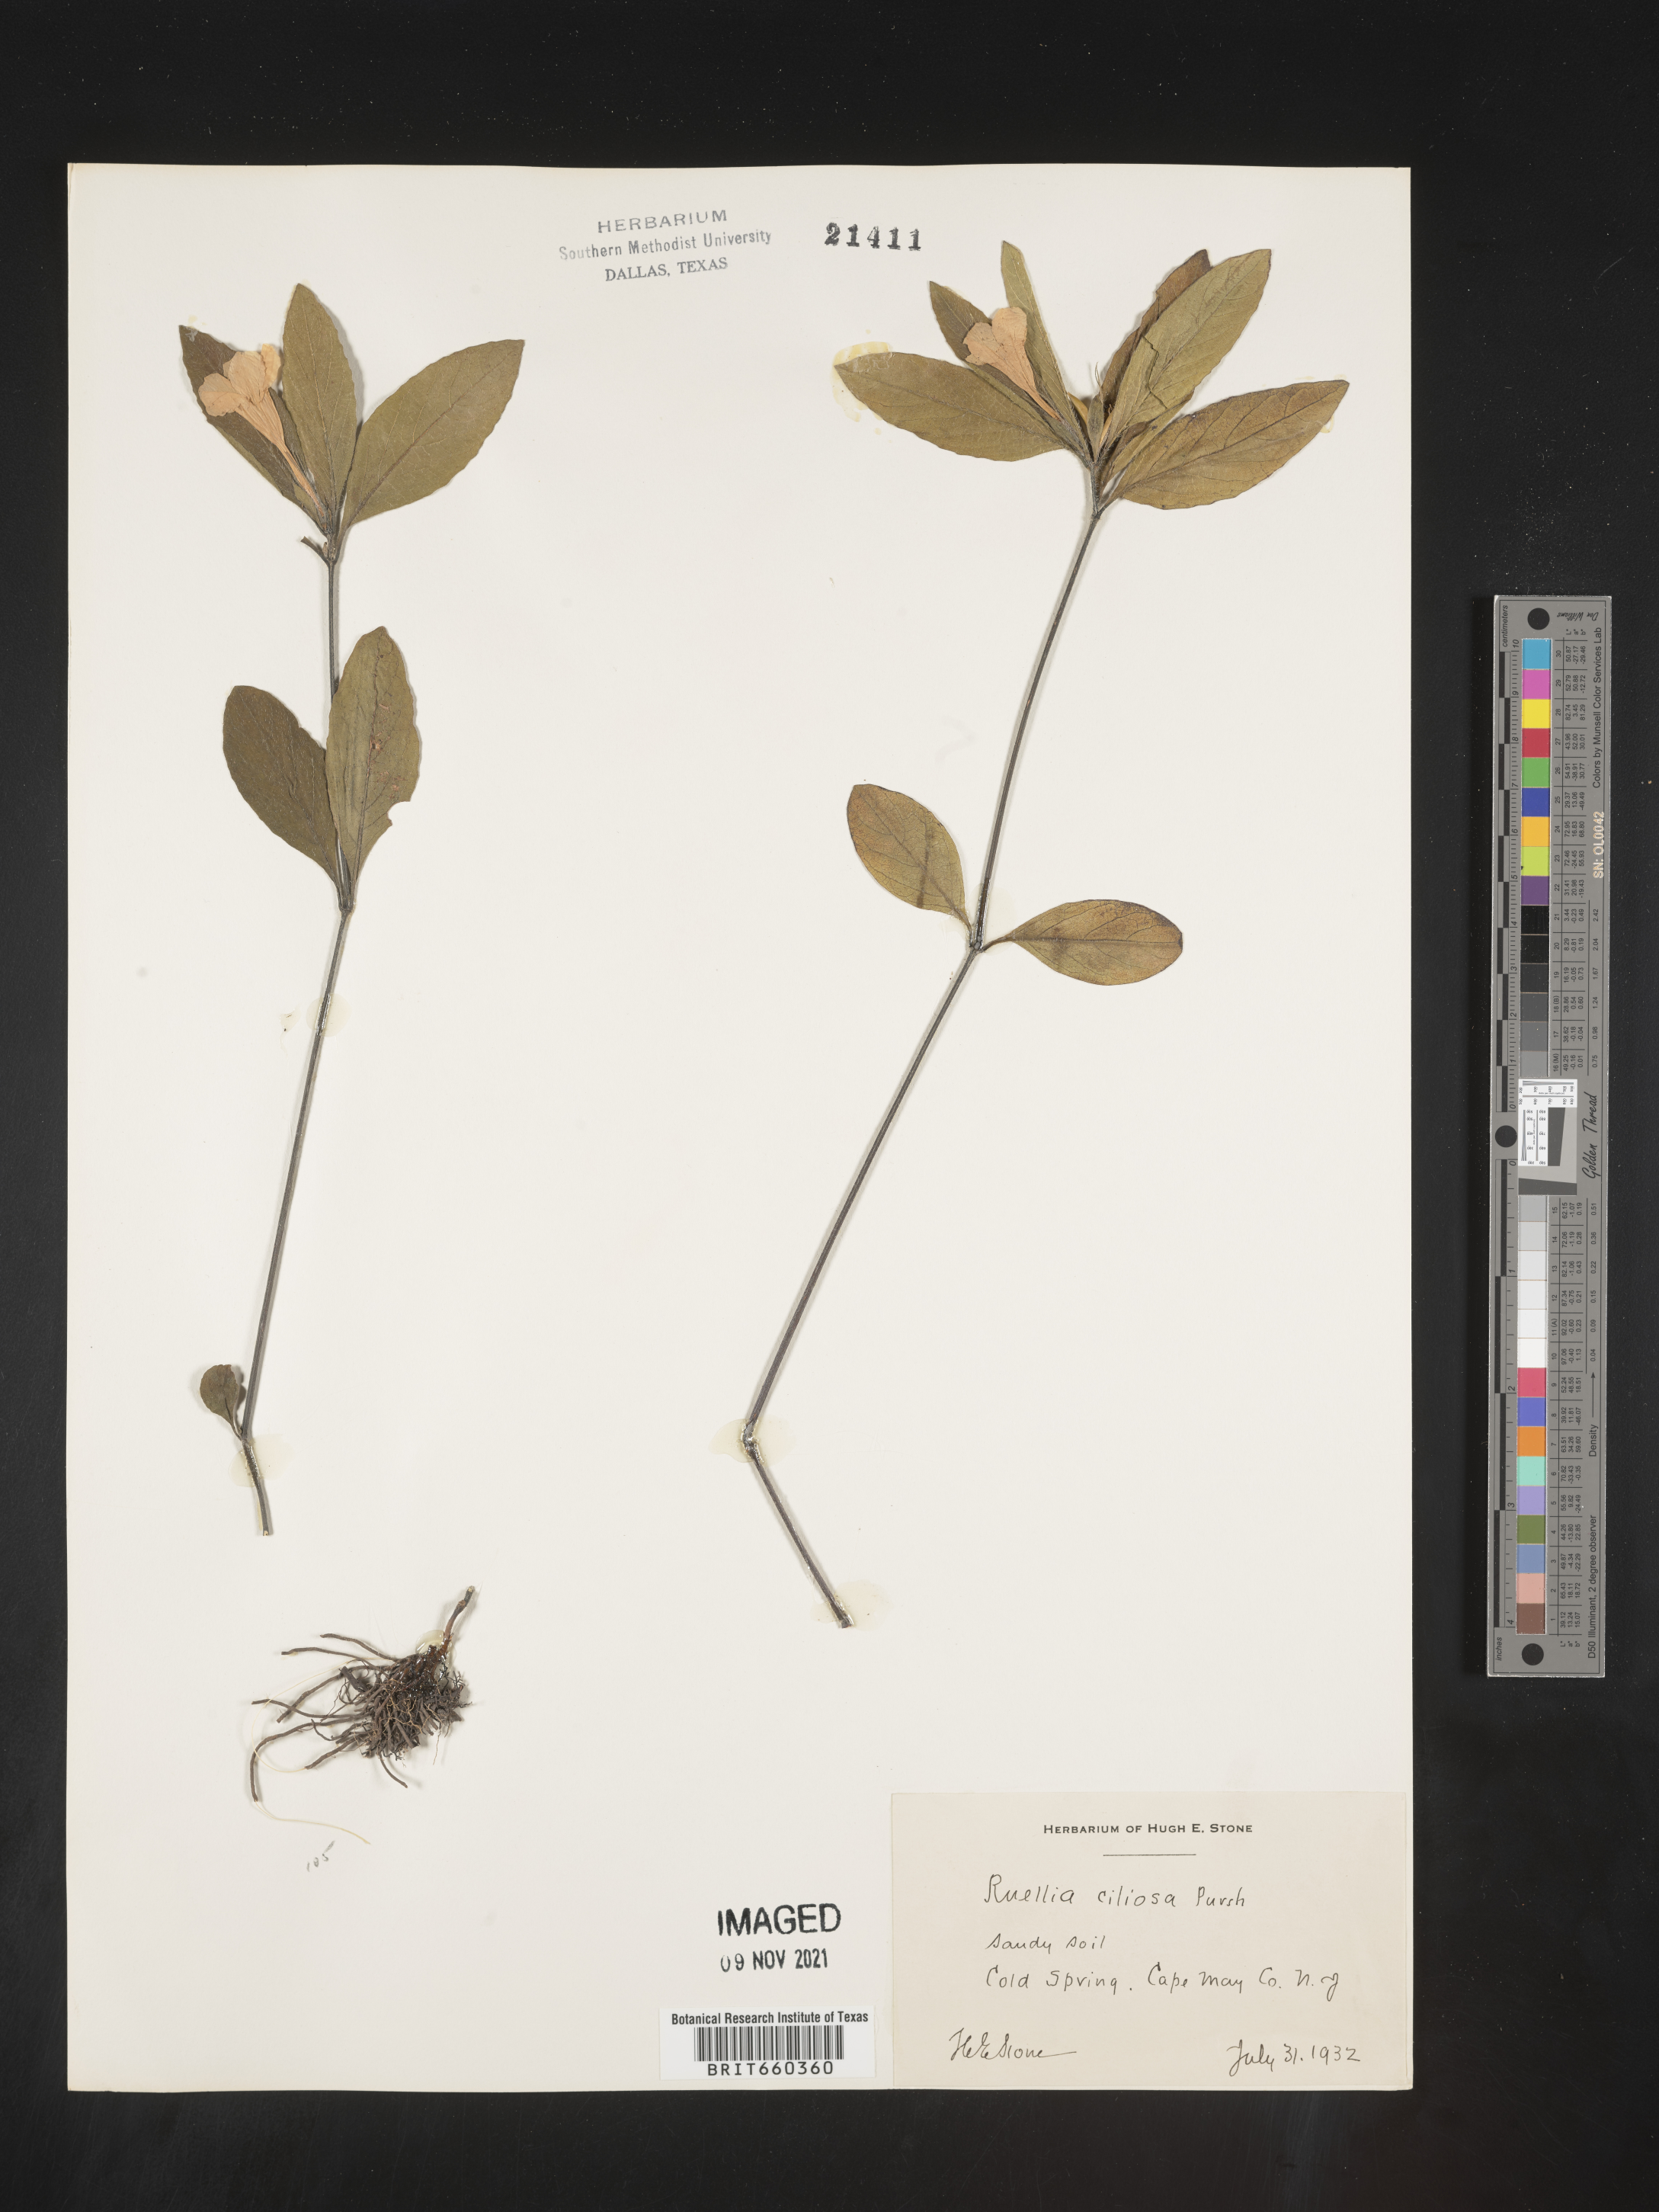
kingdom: Plantae
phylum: Tracheophyta
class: Magnoliopsida
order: Lamiales
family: Acanthaceae
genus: Ruellia
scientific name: Ruellia caroliniensis
